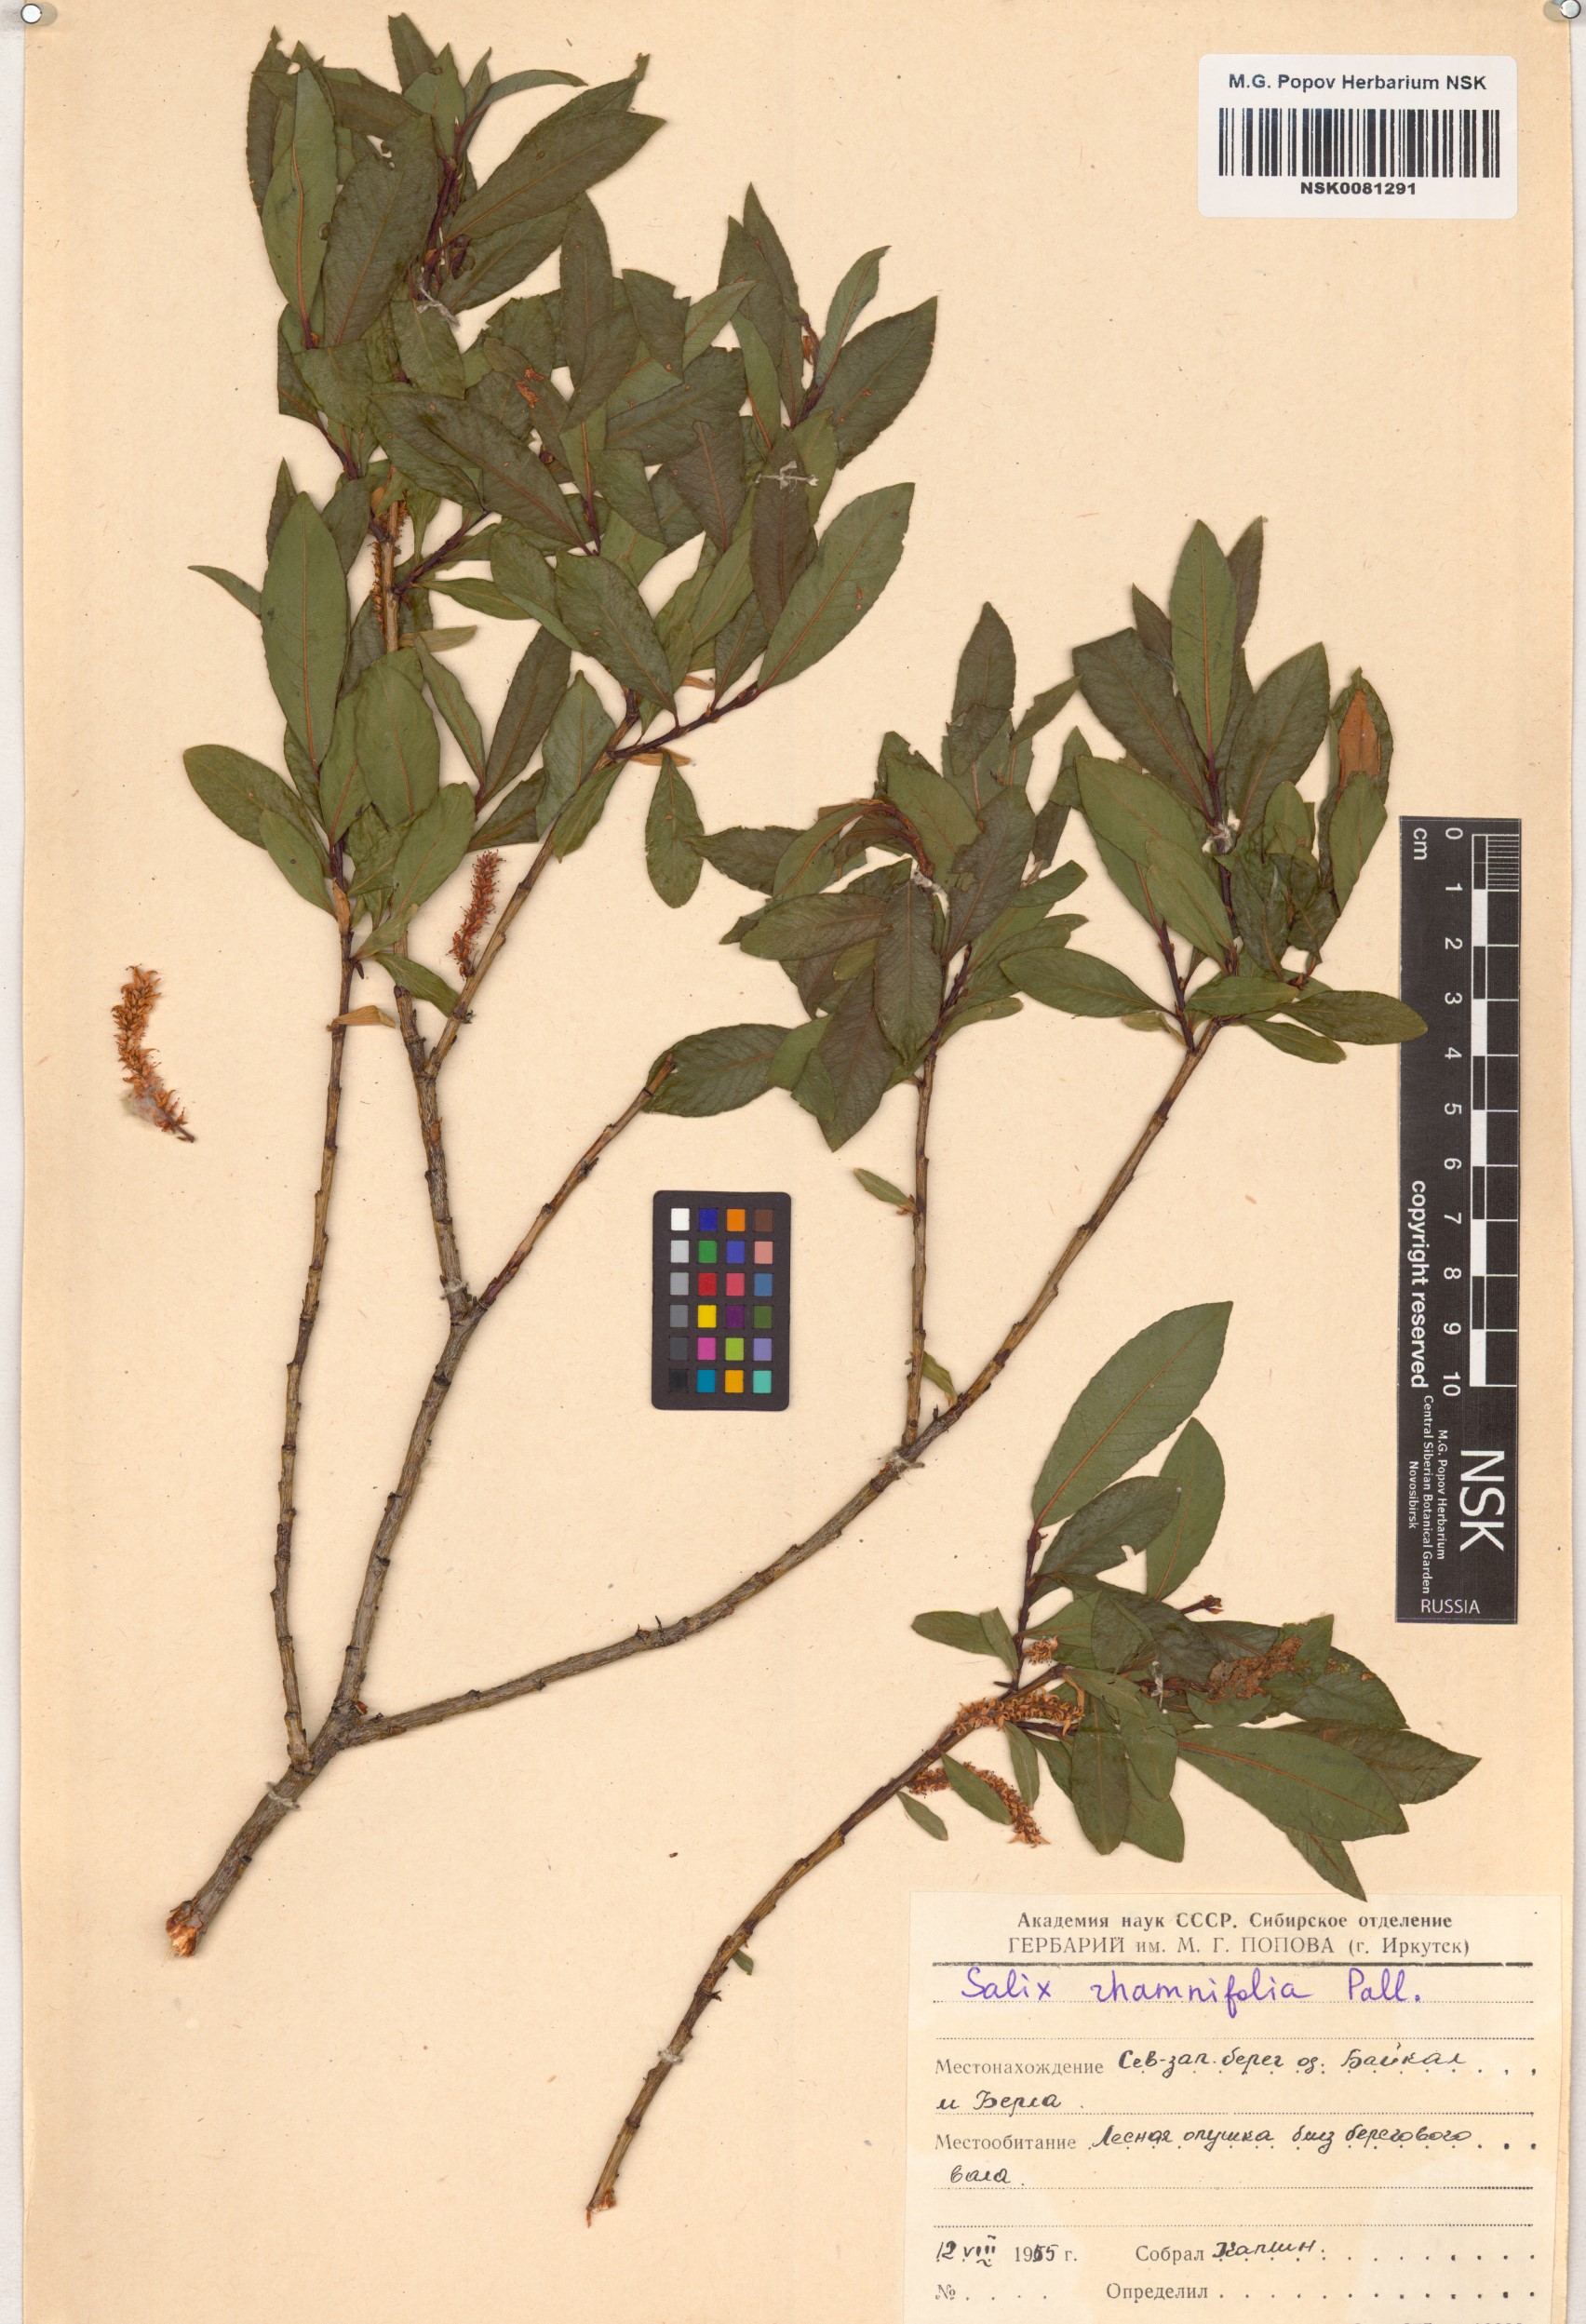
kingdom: Plantae
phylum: Tracheophyta
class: Magnoliopsida
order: Malpighiales
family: Salicaceae
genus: Salix
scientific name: Salix rhamnifolia
